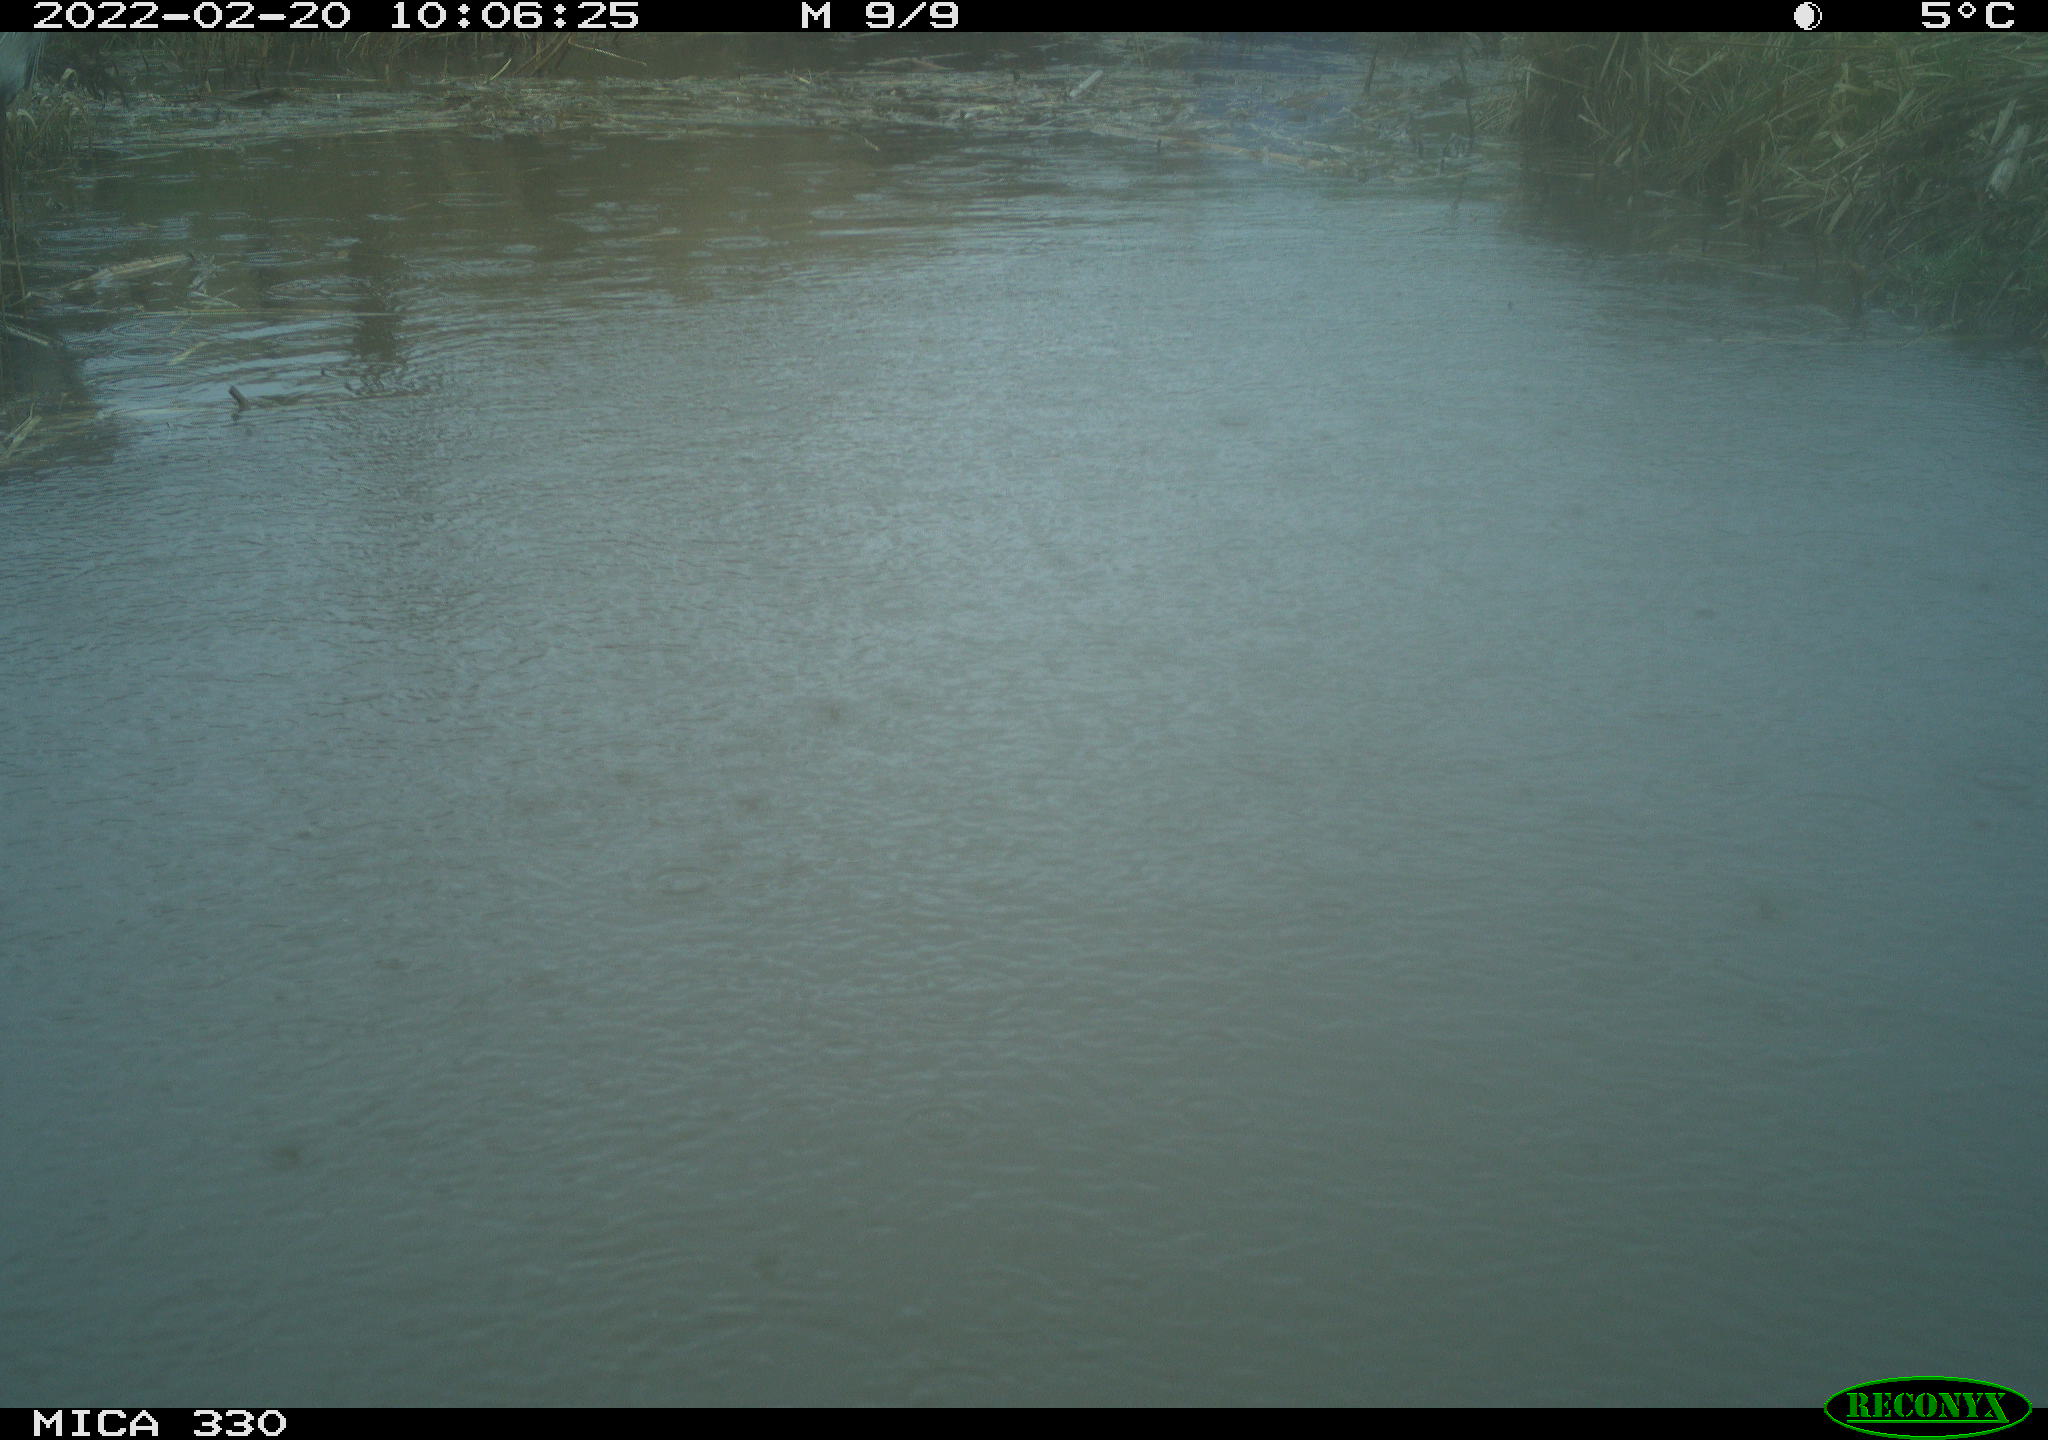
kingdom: Animalia
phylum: Chordata
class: Aves
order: Gruiformes
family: Rallidae
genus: Fulica
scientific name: Fulica atra
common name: Eurasian coot
